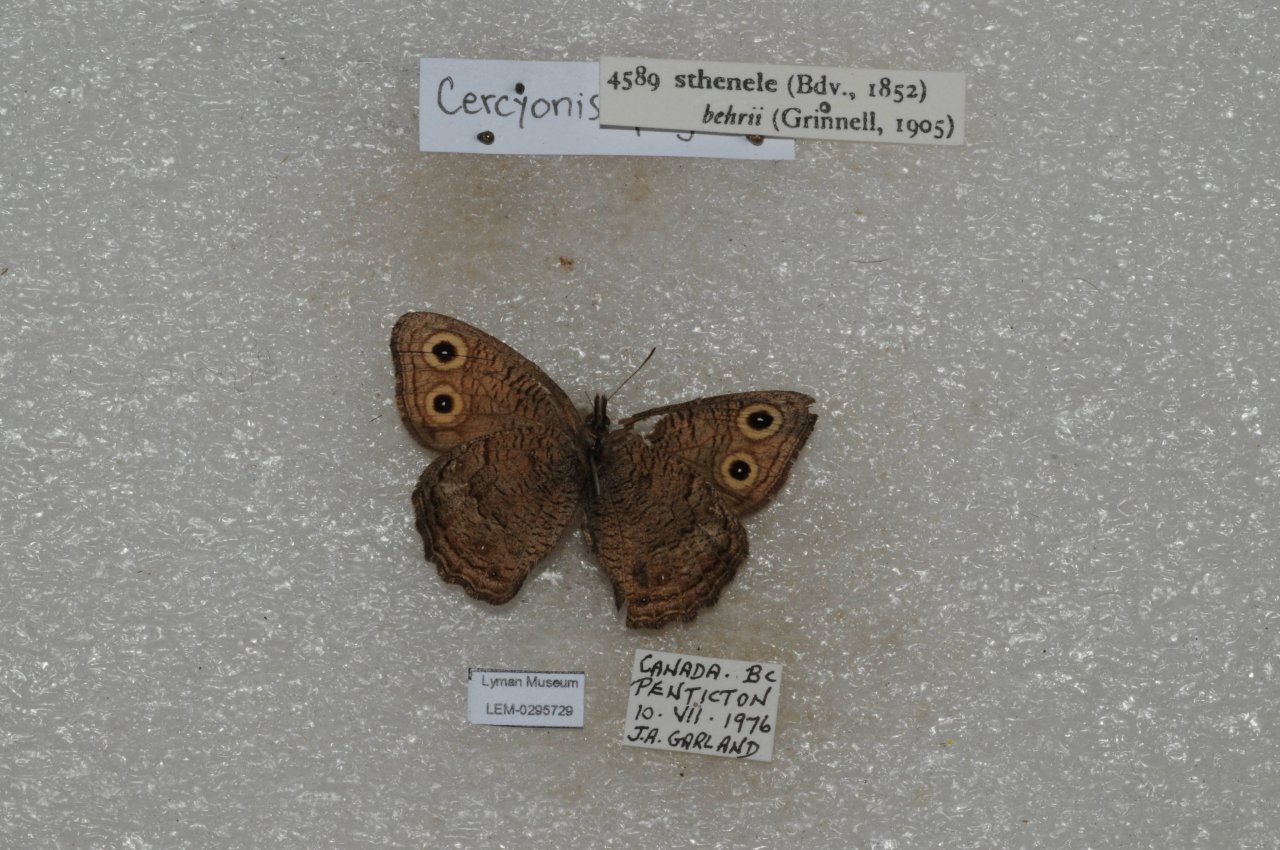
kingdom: Animalia
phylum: Arthropoda
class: Insecta
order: Lepidoptera
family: Nymphalidae
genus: Cercyonis
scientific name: Cercyonis sthenele
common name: Great Basin Wood-Nymph
